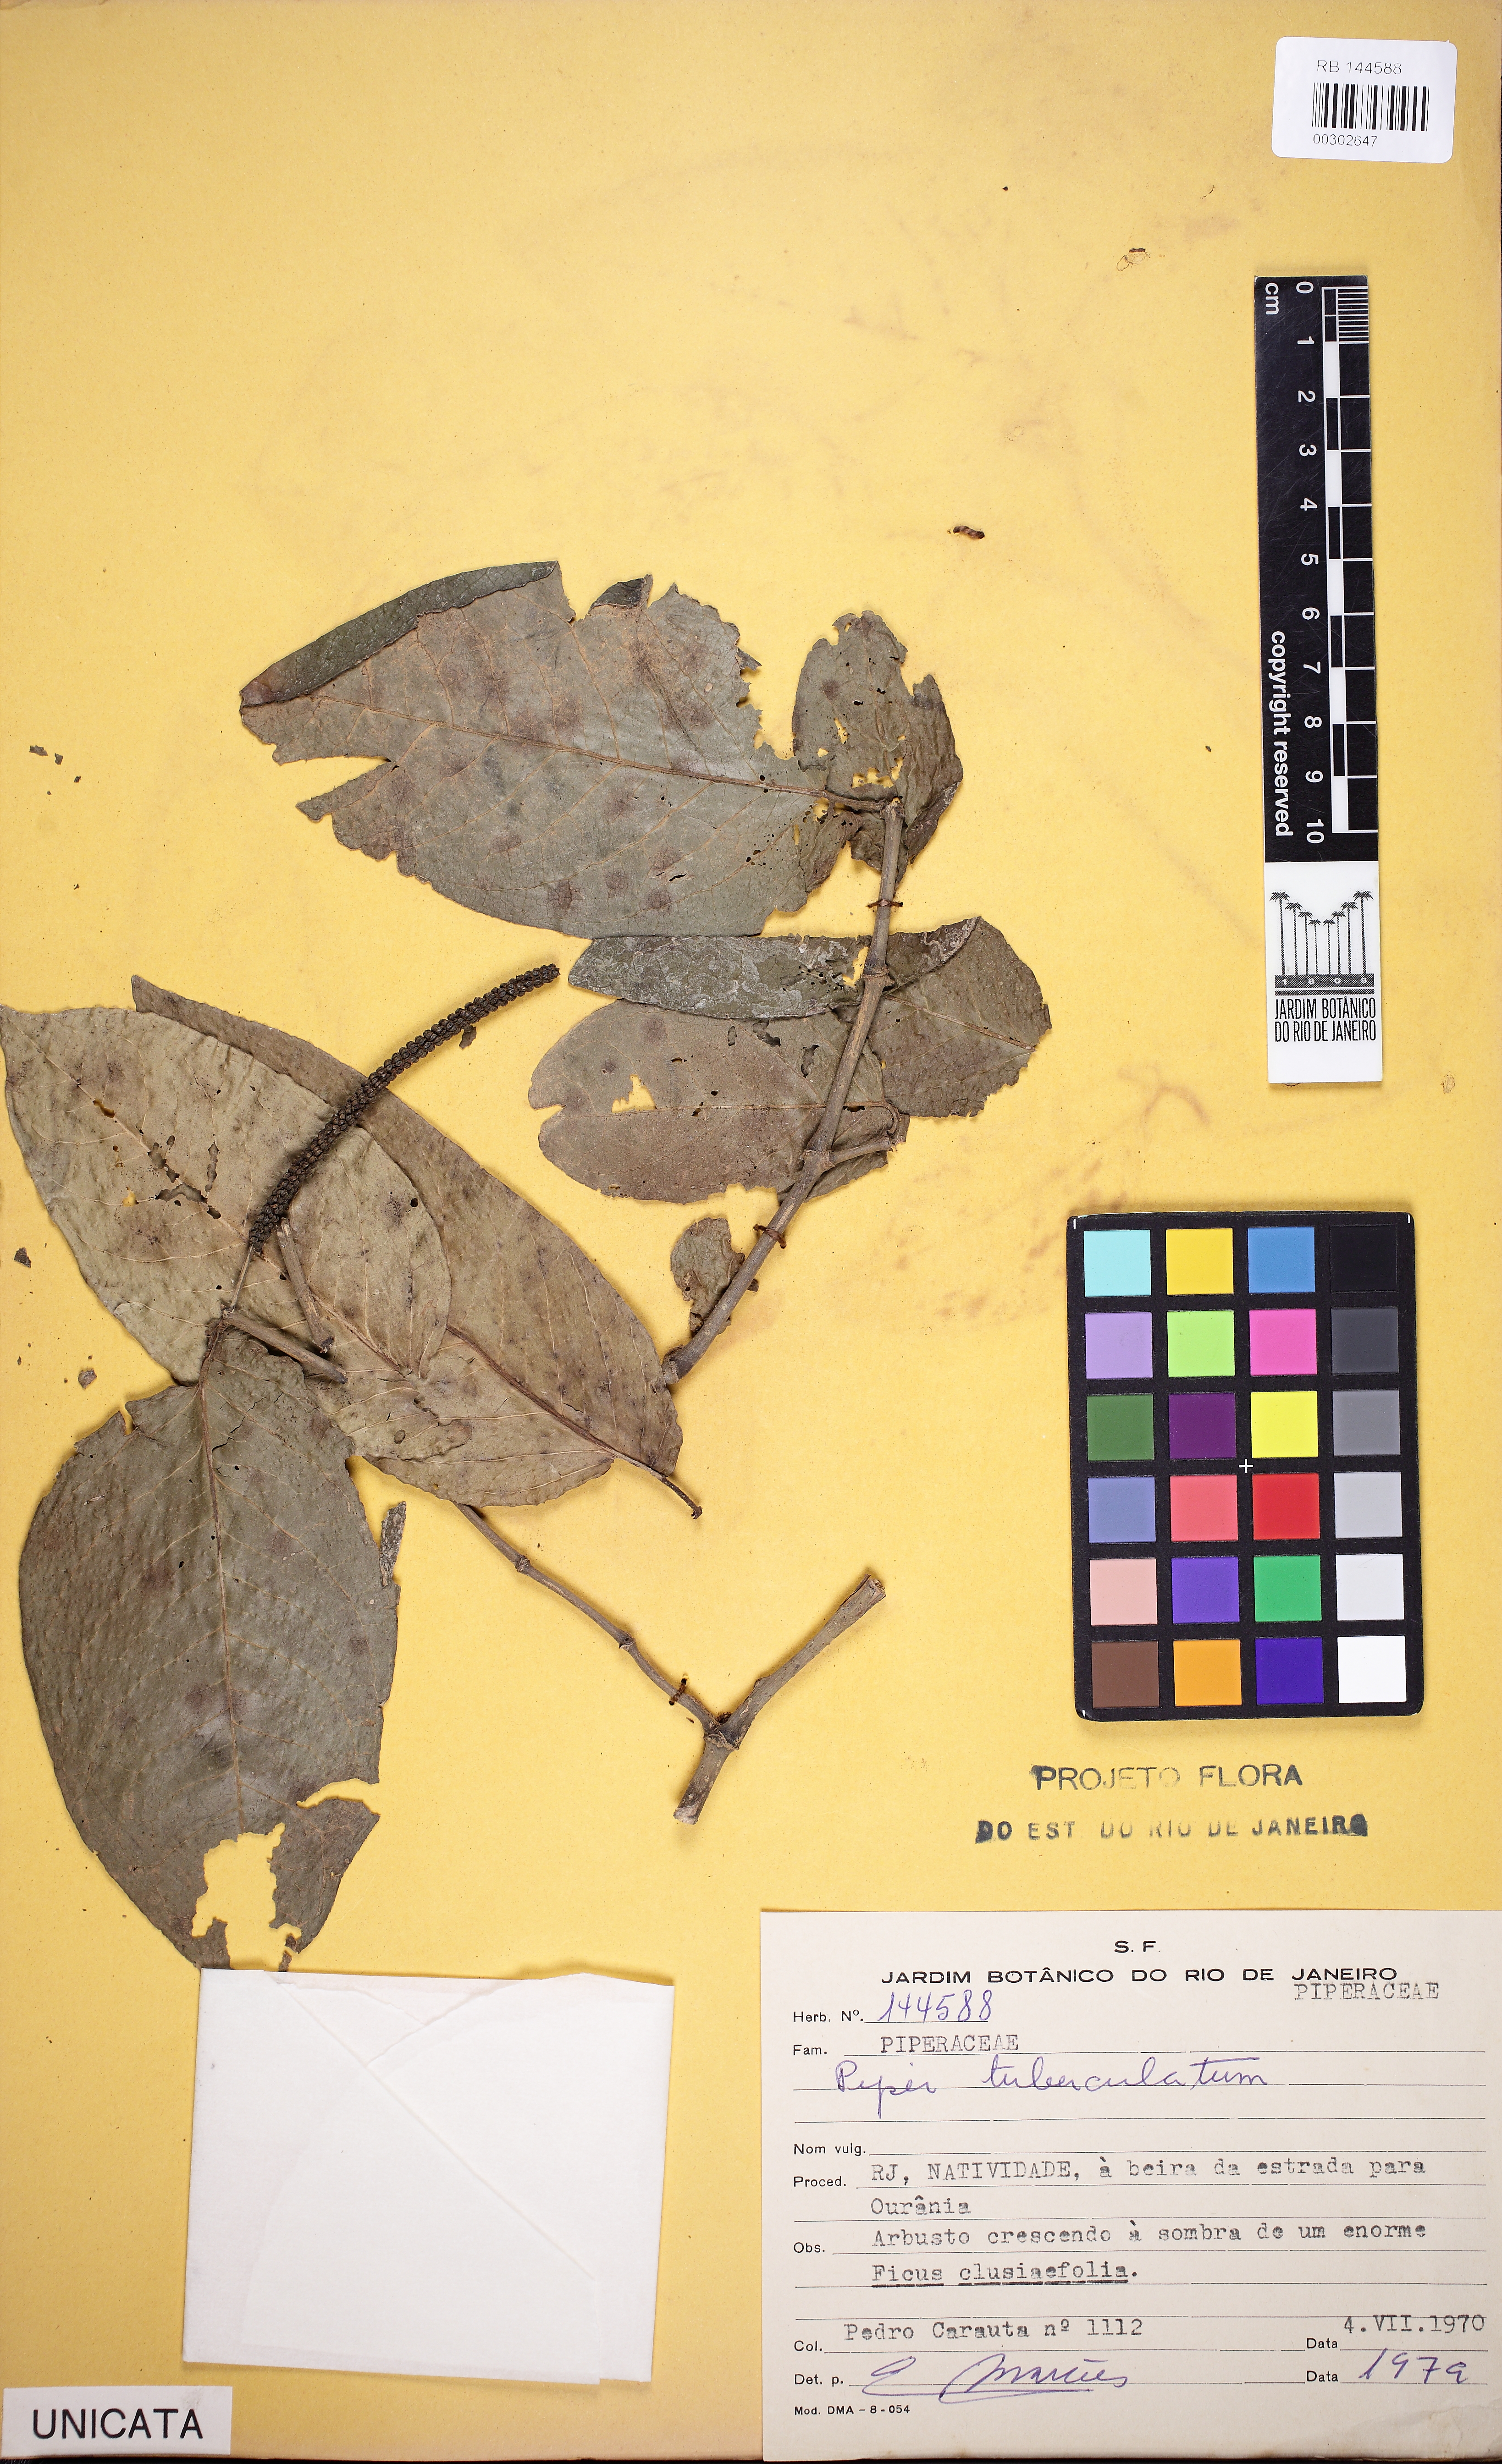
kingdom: Plantae
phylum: Tracheophyta
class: Magnoliopsida
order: Piperales
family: Piperaceae
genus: Piper
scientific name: Piper tuberculatum
